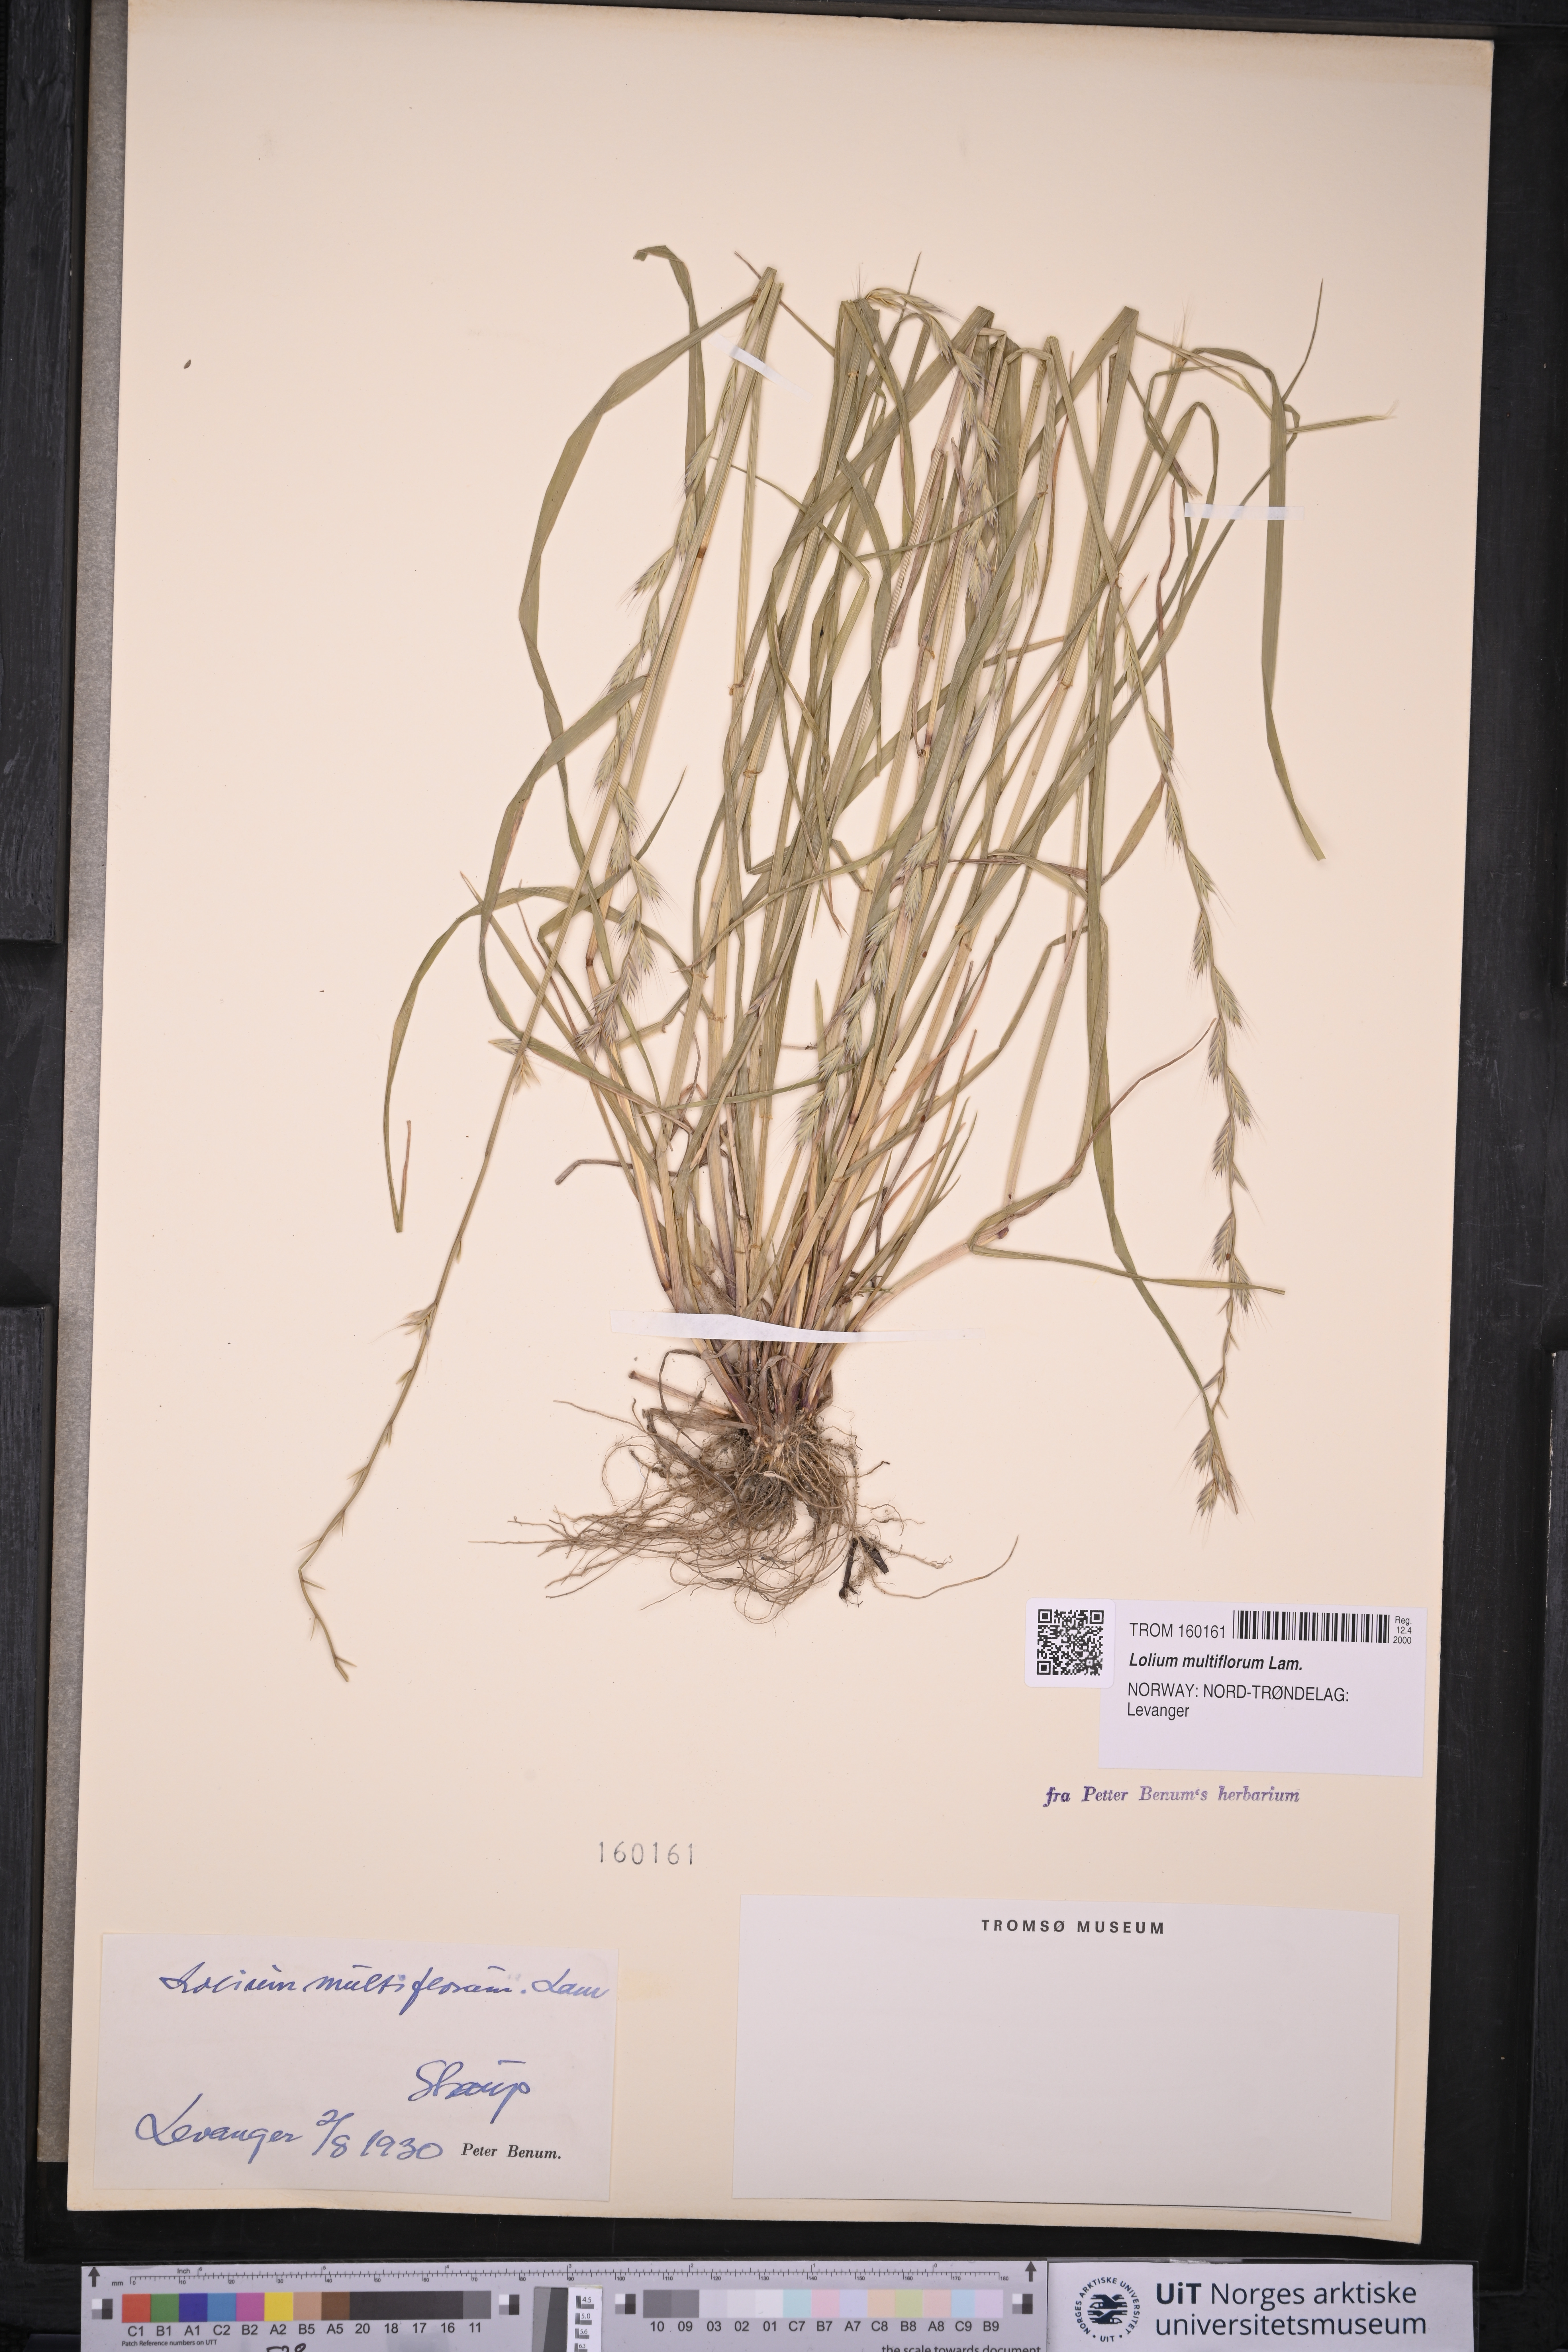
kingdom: Plantae
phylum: Tracheophyta
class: Liliopsida
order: Poales
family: Poaceae
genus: Lolium
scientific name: Lolium multiflorum
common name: Annual ryegrass
